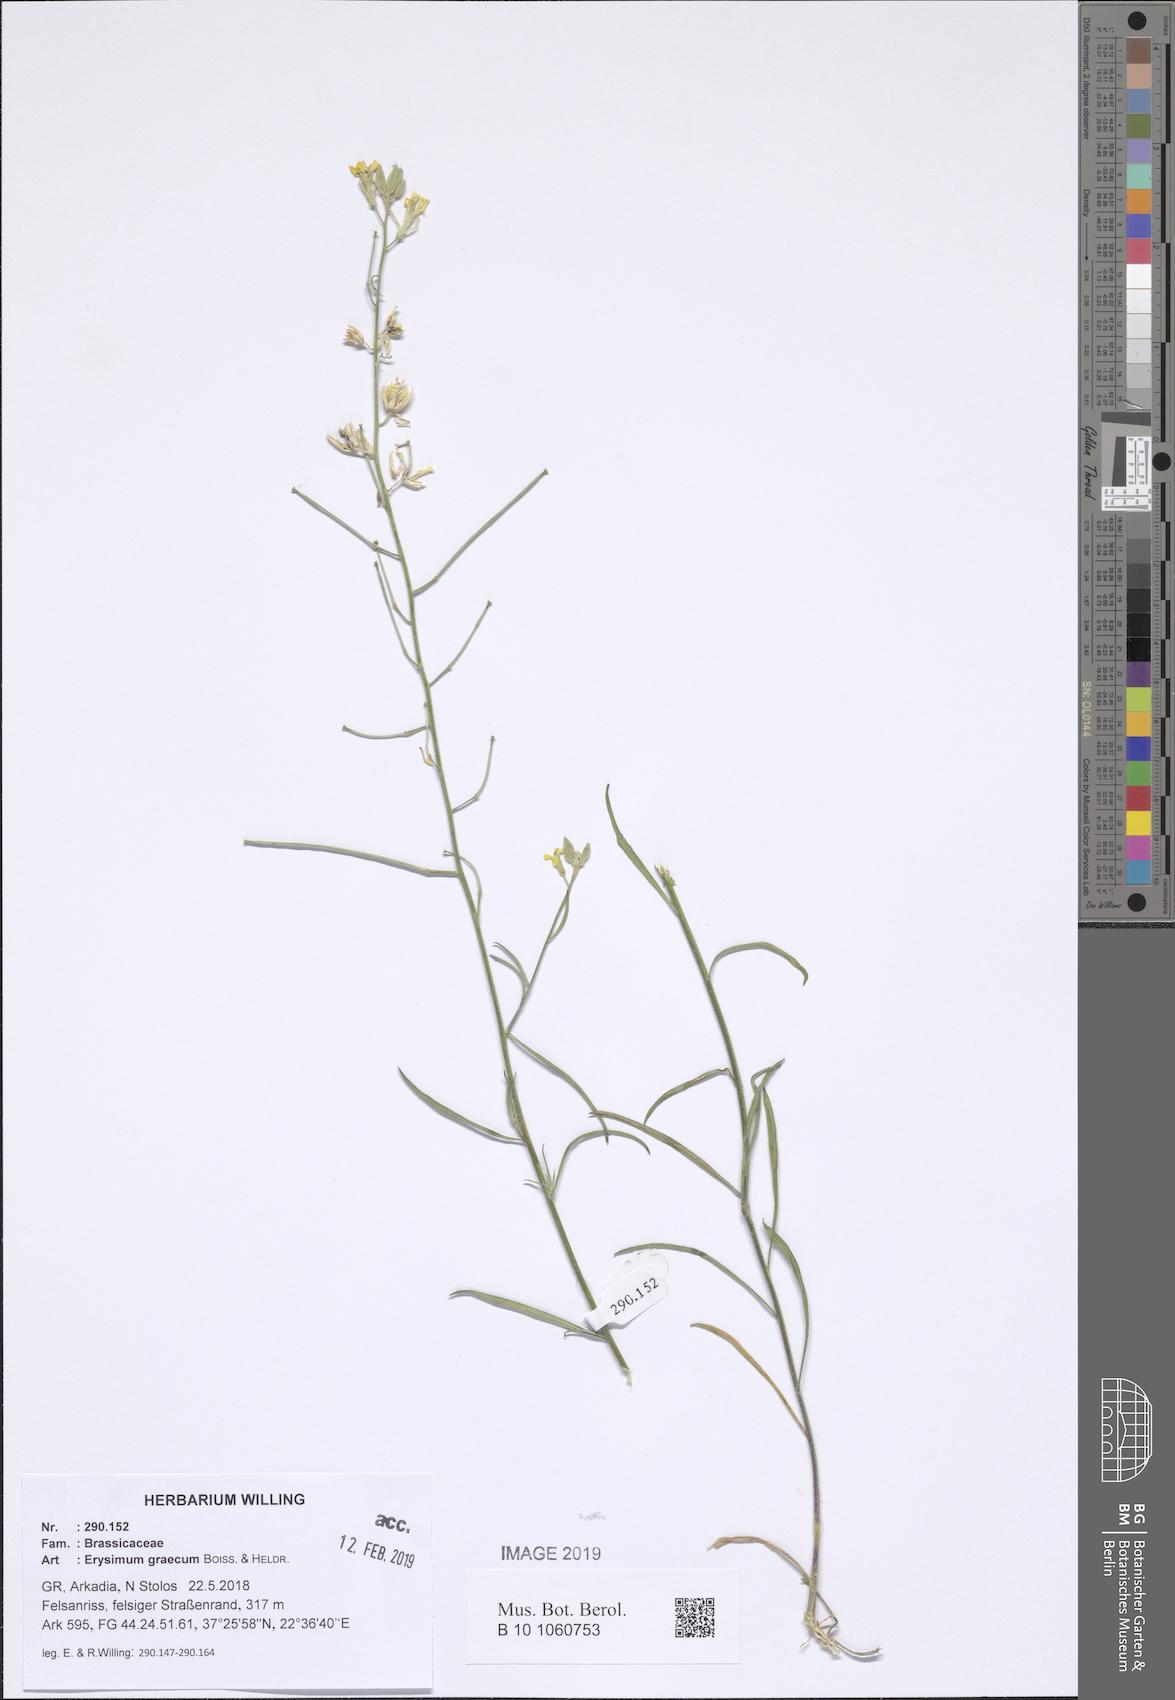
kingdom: Plantae
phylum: Tracheophyta
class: Magnoliopsida
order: Brassicales
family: Brassicaceae
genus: Erysimum
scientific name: Erysimum graecum
